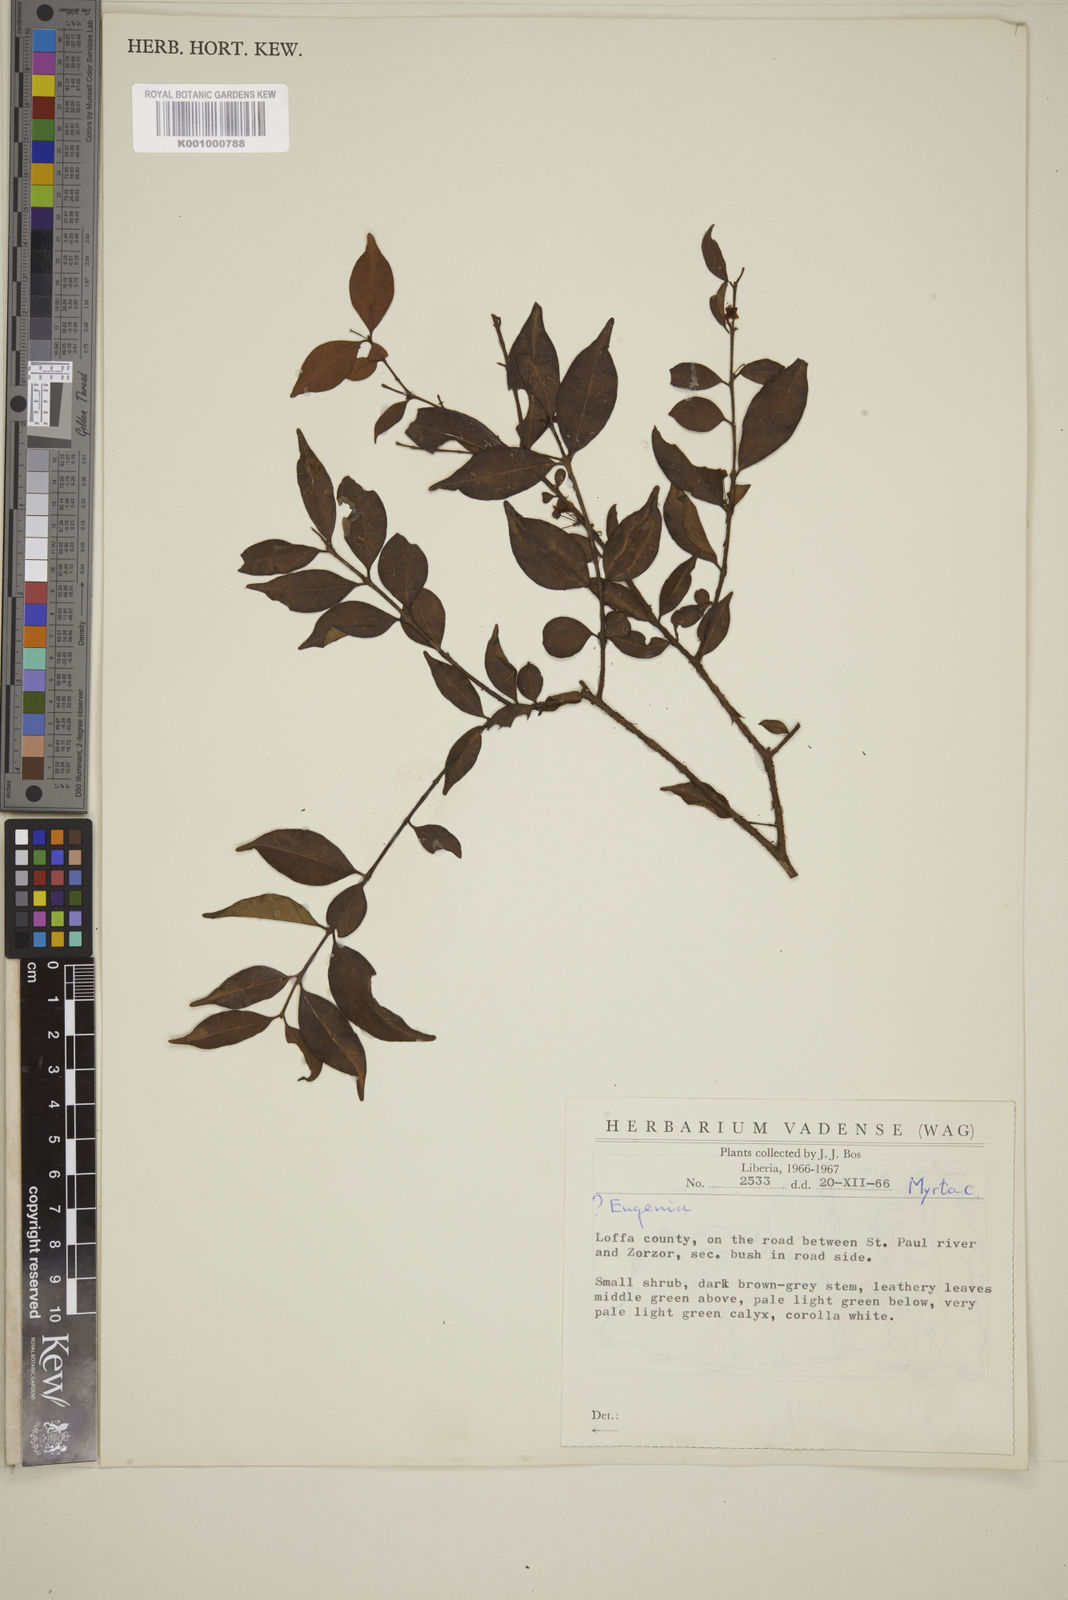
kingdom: Plantae
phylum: Tracheophyta
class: Magnoliopsida
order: Myrtales
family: Myrtaceae
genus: Eugenia
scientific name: Eugenia
